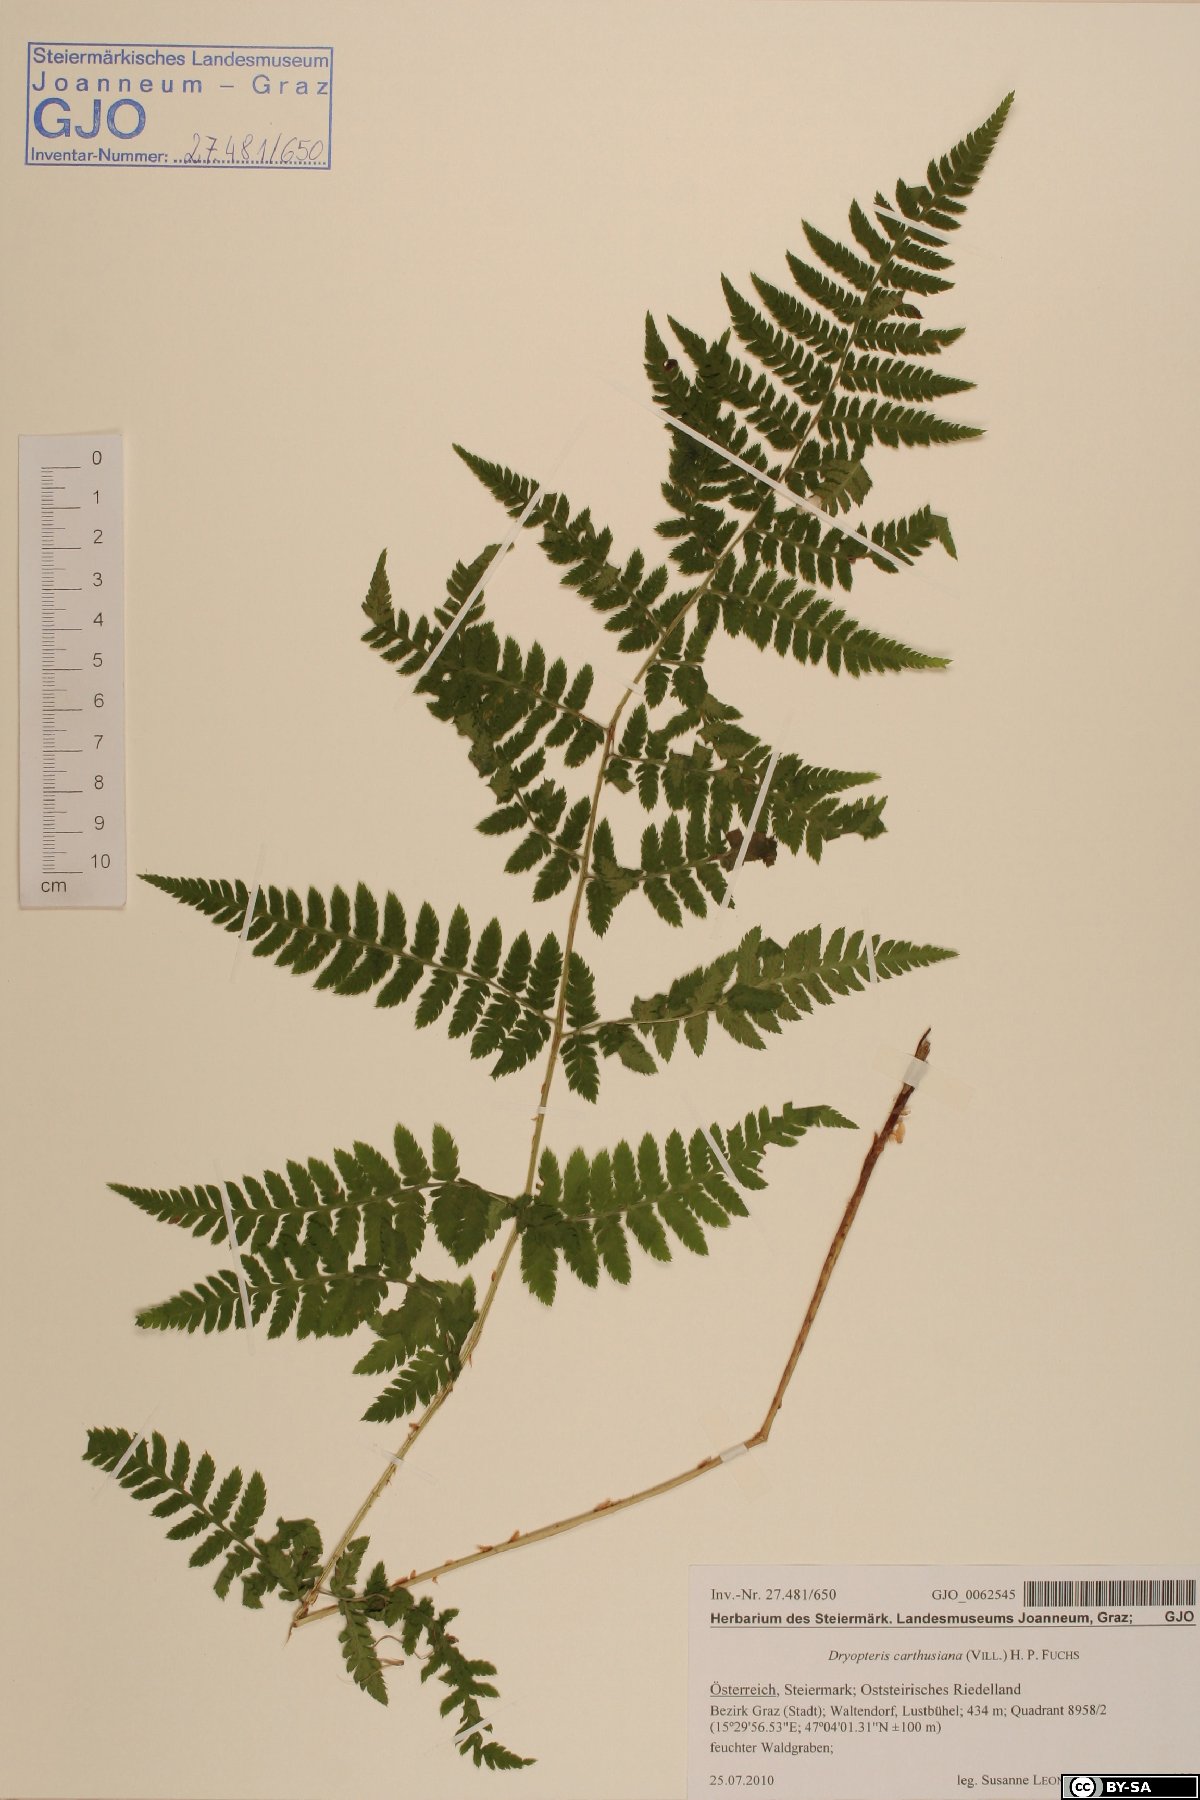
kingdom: Plantae
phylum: Tracheophyta
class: Polypodiopsida
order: Polypodiales
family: Dryopteridaceae
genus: Dryopteris
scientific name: Dryopteris carthusiana
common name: Narrow buckler-fern
